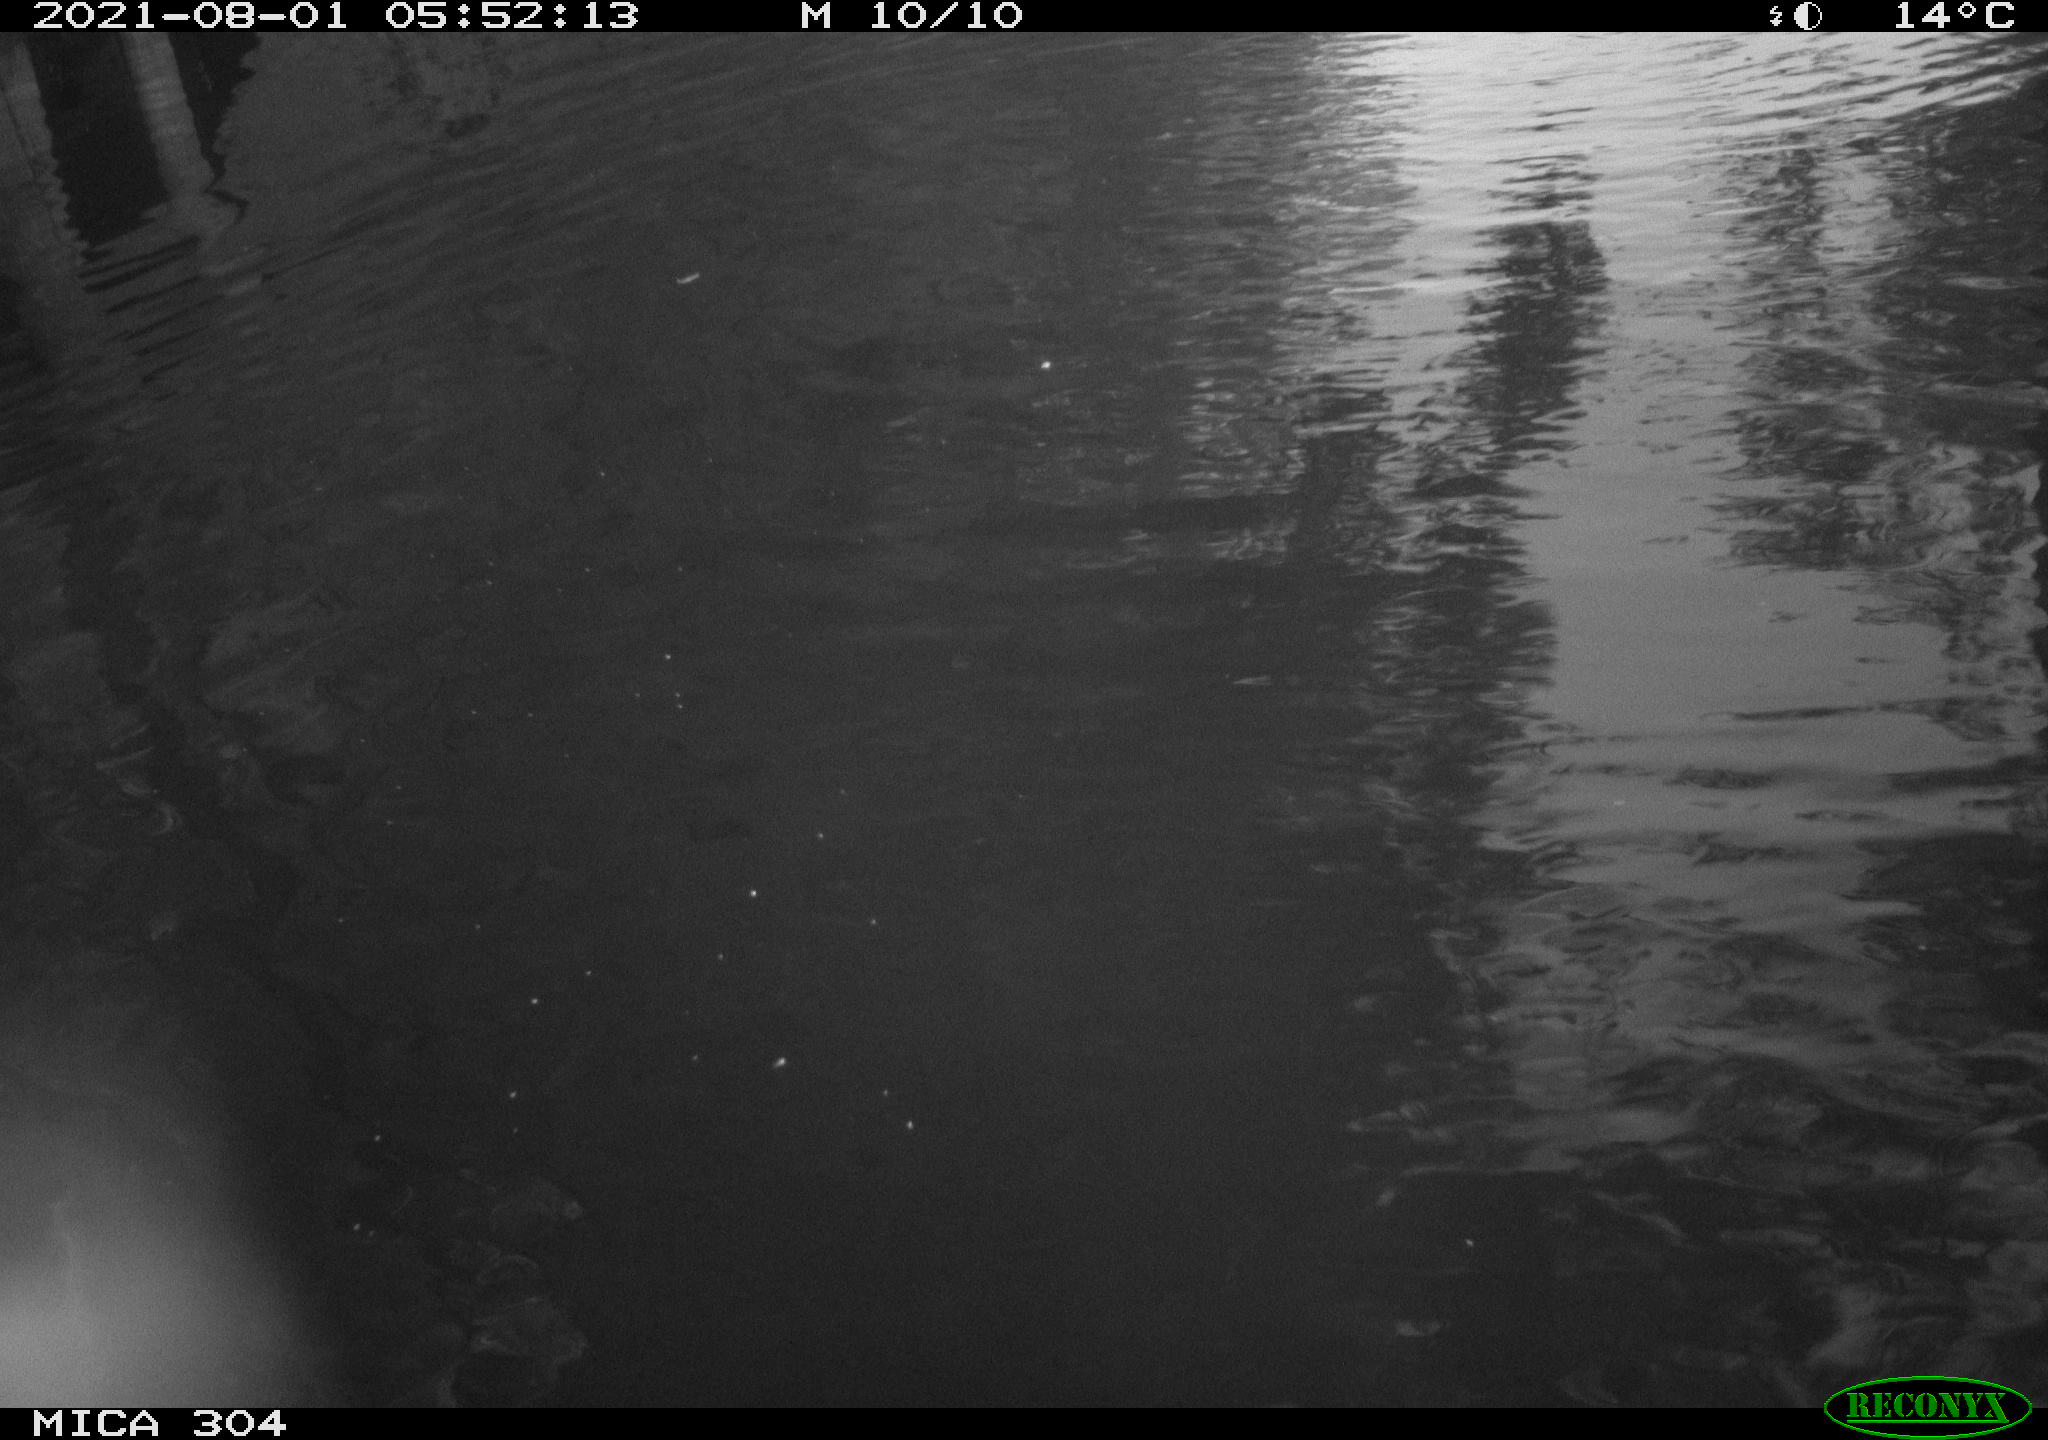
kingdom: Animalia
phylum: Chordata
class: Aves
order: Anseriformes
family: Anatidae
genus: Anas
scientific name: Anas platyrhynchos
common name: Mallard
